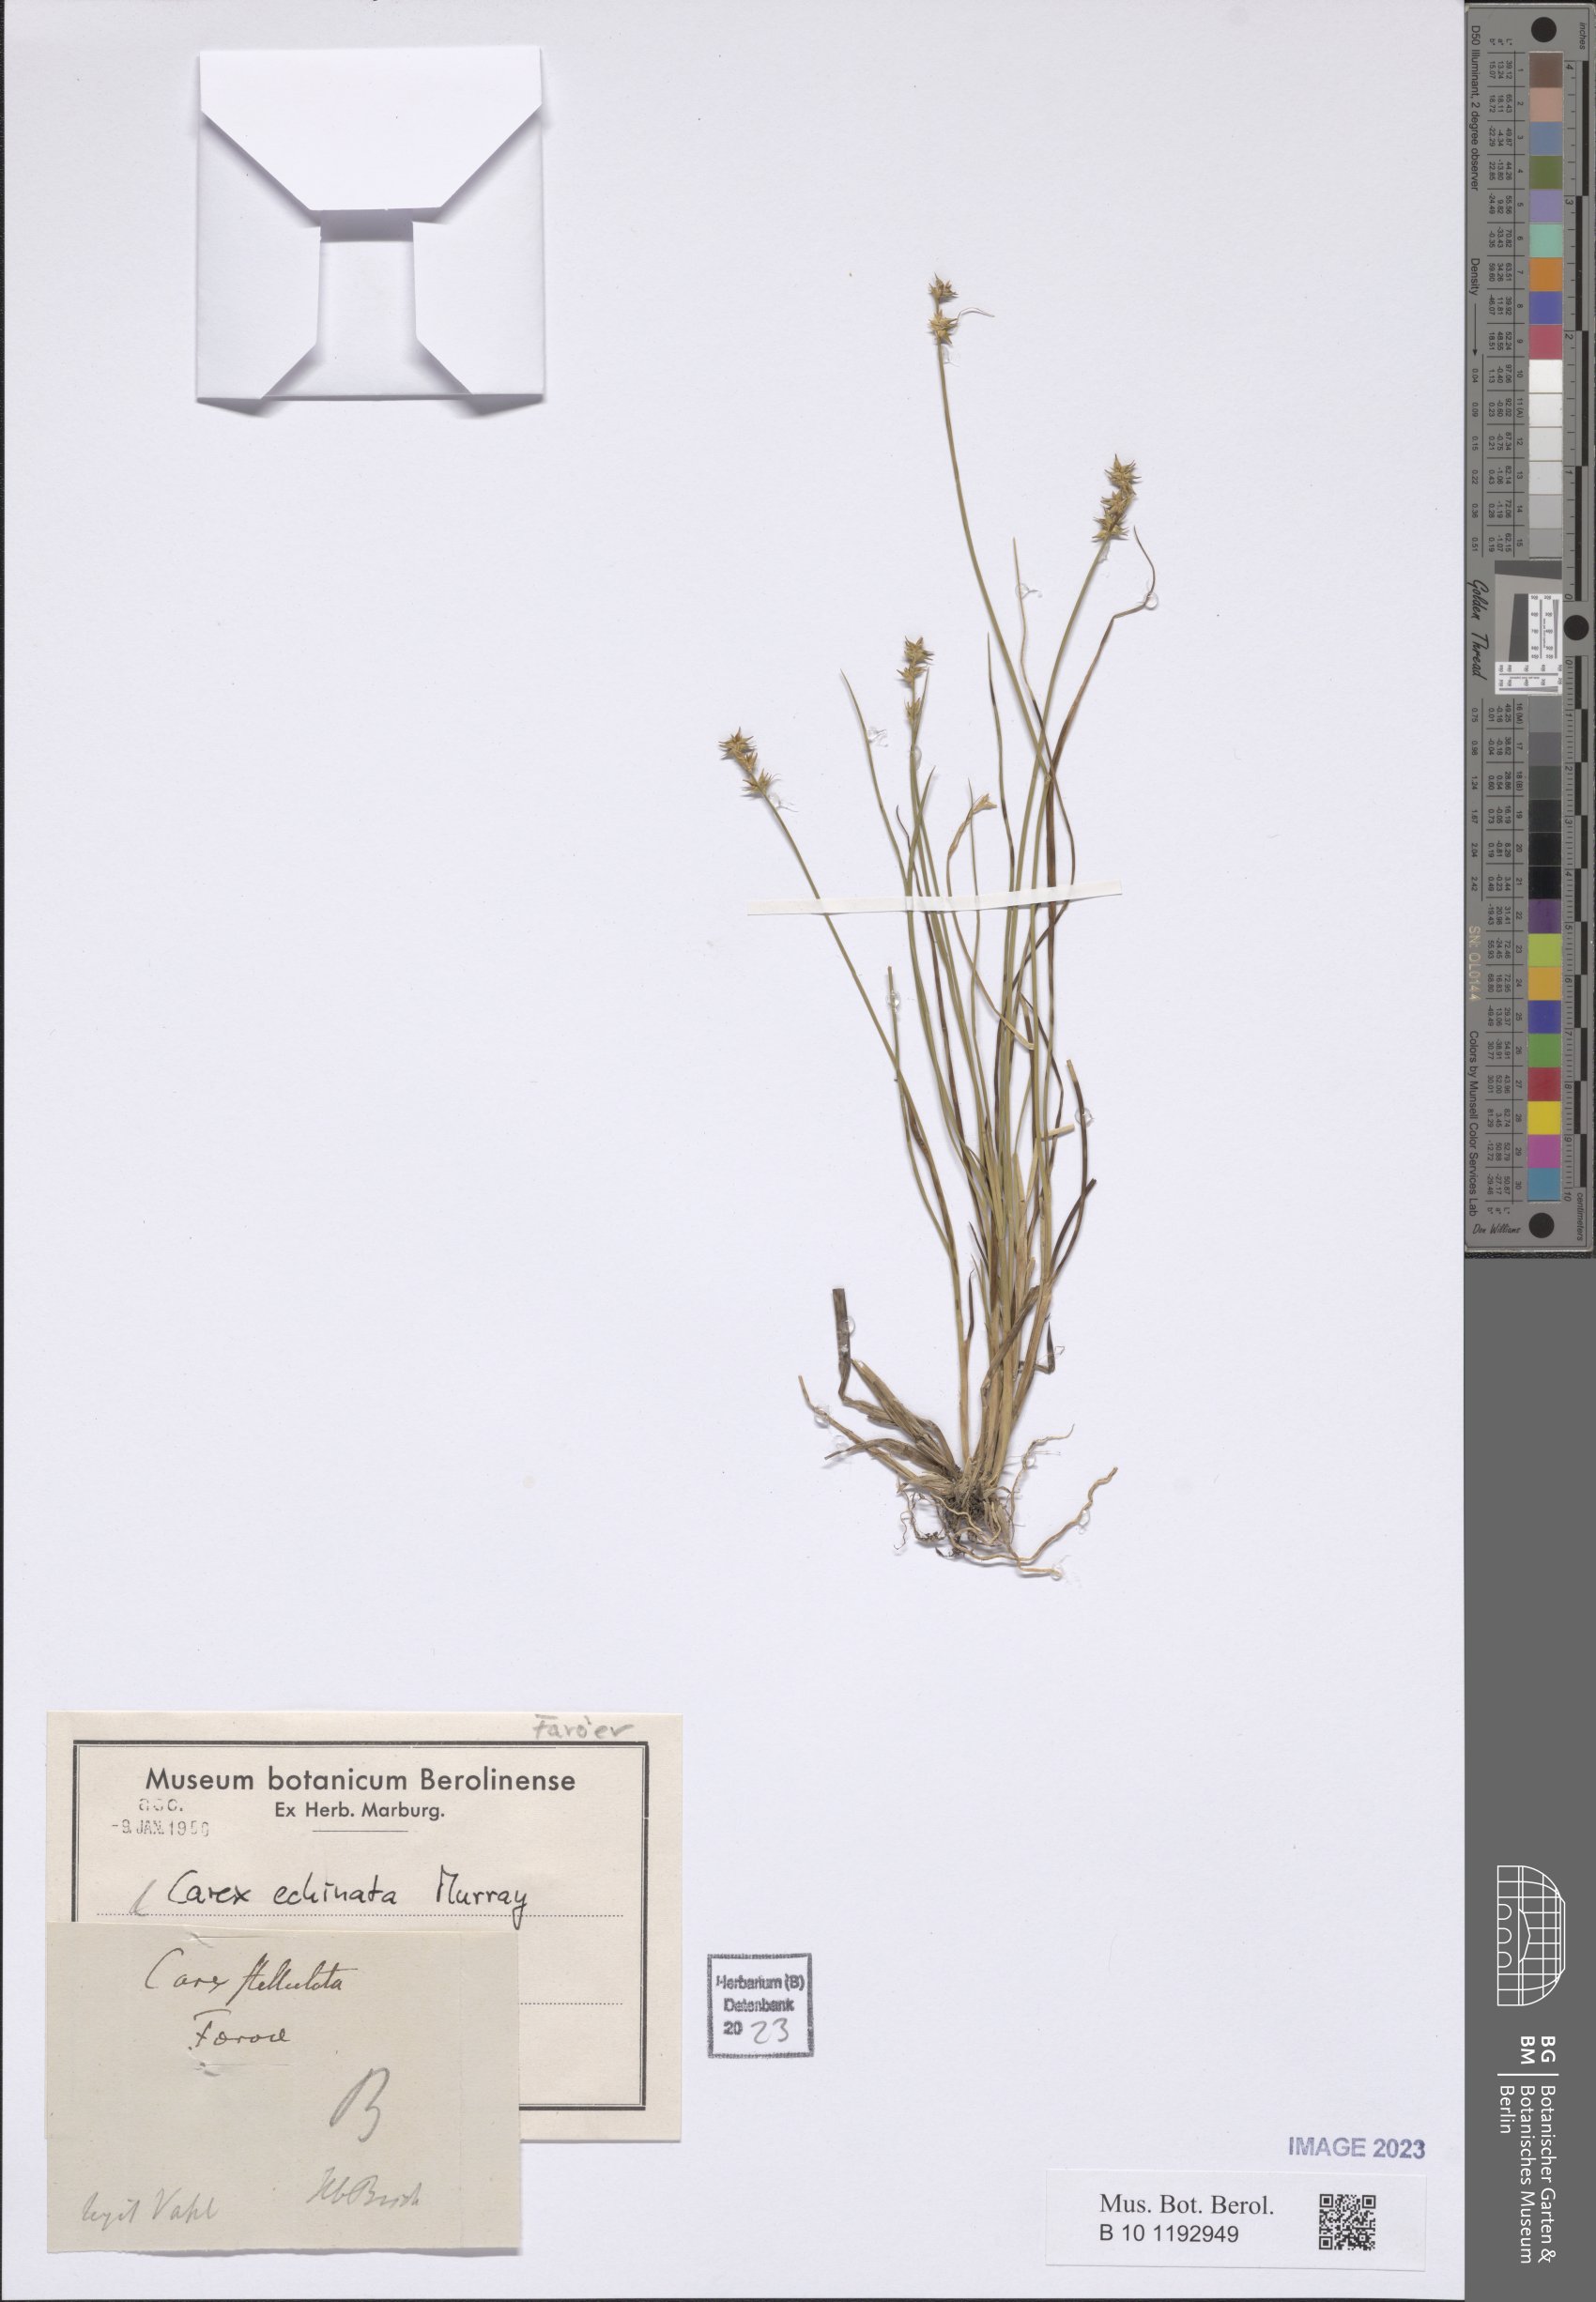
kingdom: Plantae
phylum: Tracheophyta
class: Liliopsida
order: Poales
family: Cyperaceae
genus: Carex
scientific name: Carex echinata
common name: Star sedge
